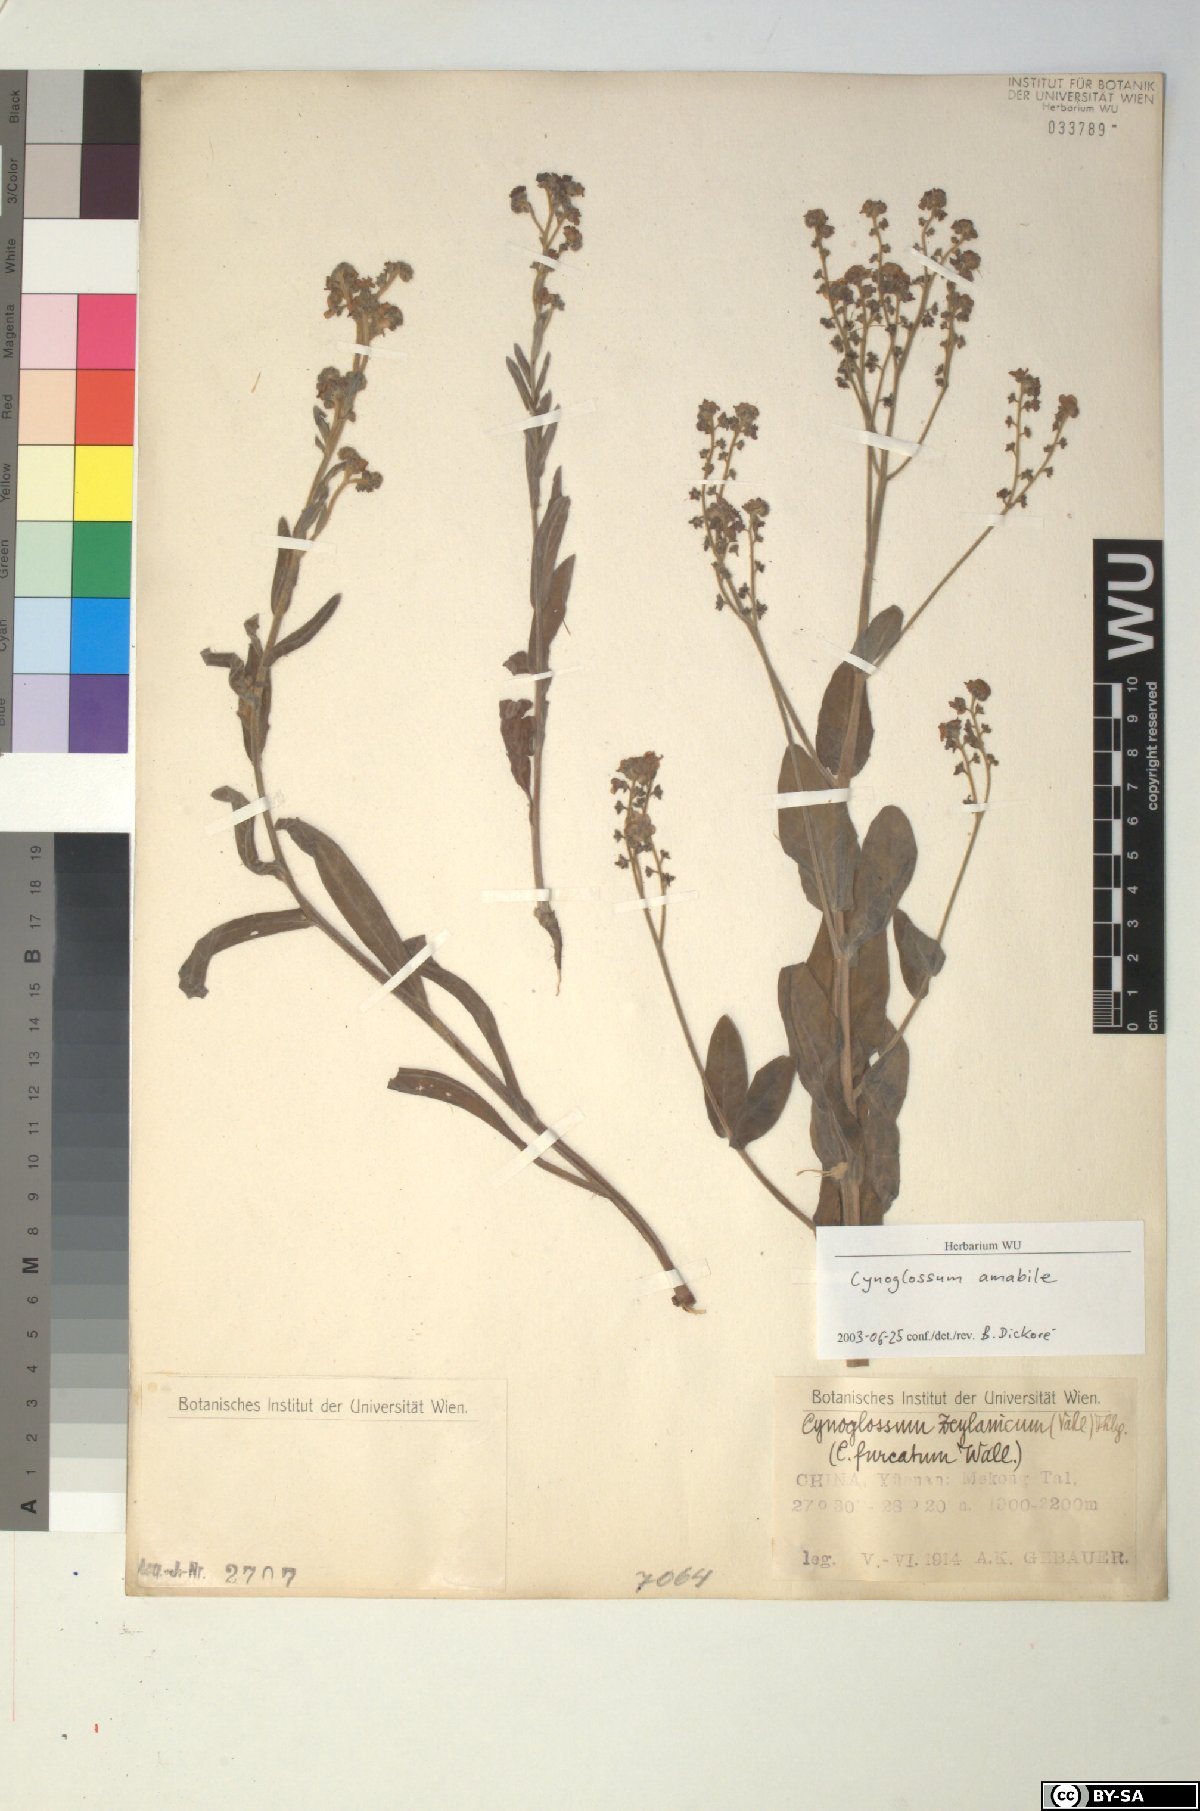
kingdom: Plantae
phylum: Tracheophyta
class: Magnoliopsida
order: Boraginales
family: Boraginaceae
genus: Cynoglossum
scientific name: Cynoglossum amabile
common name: Chinese hound's tongue
